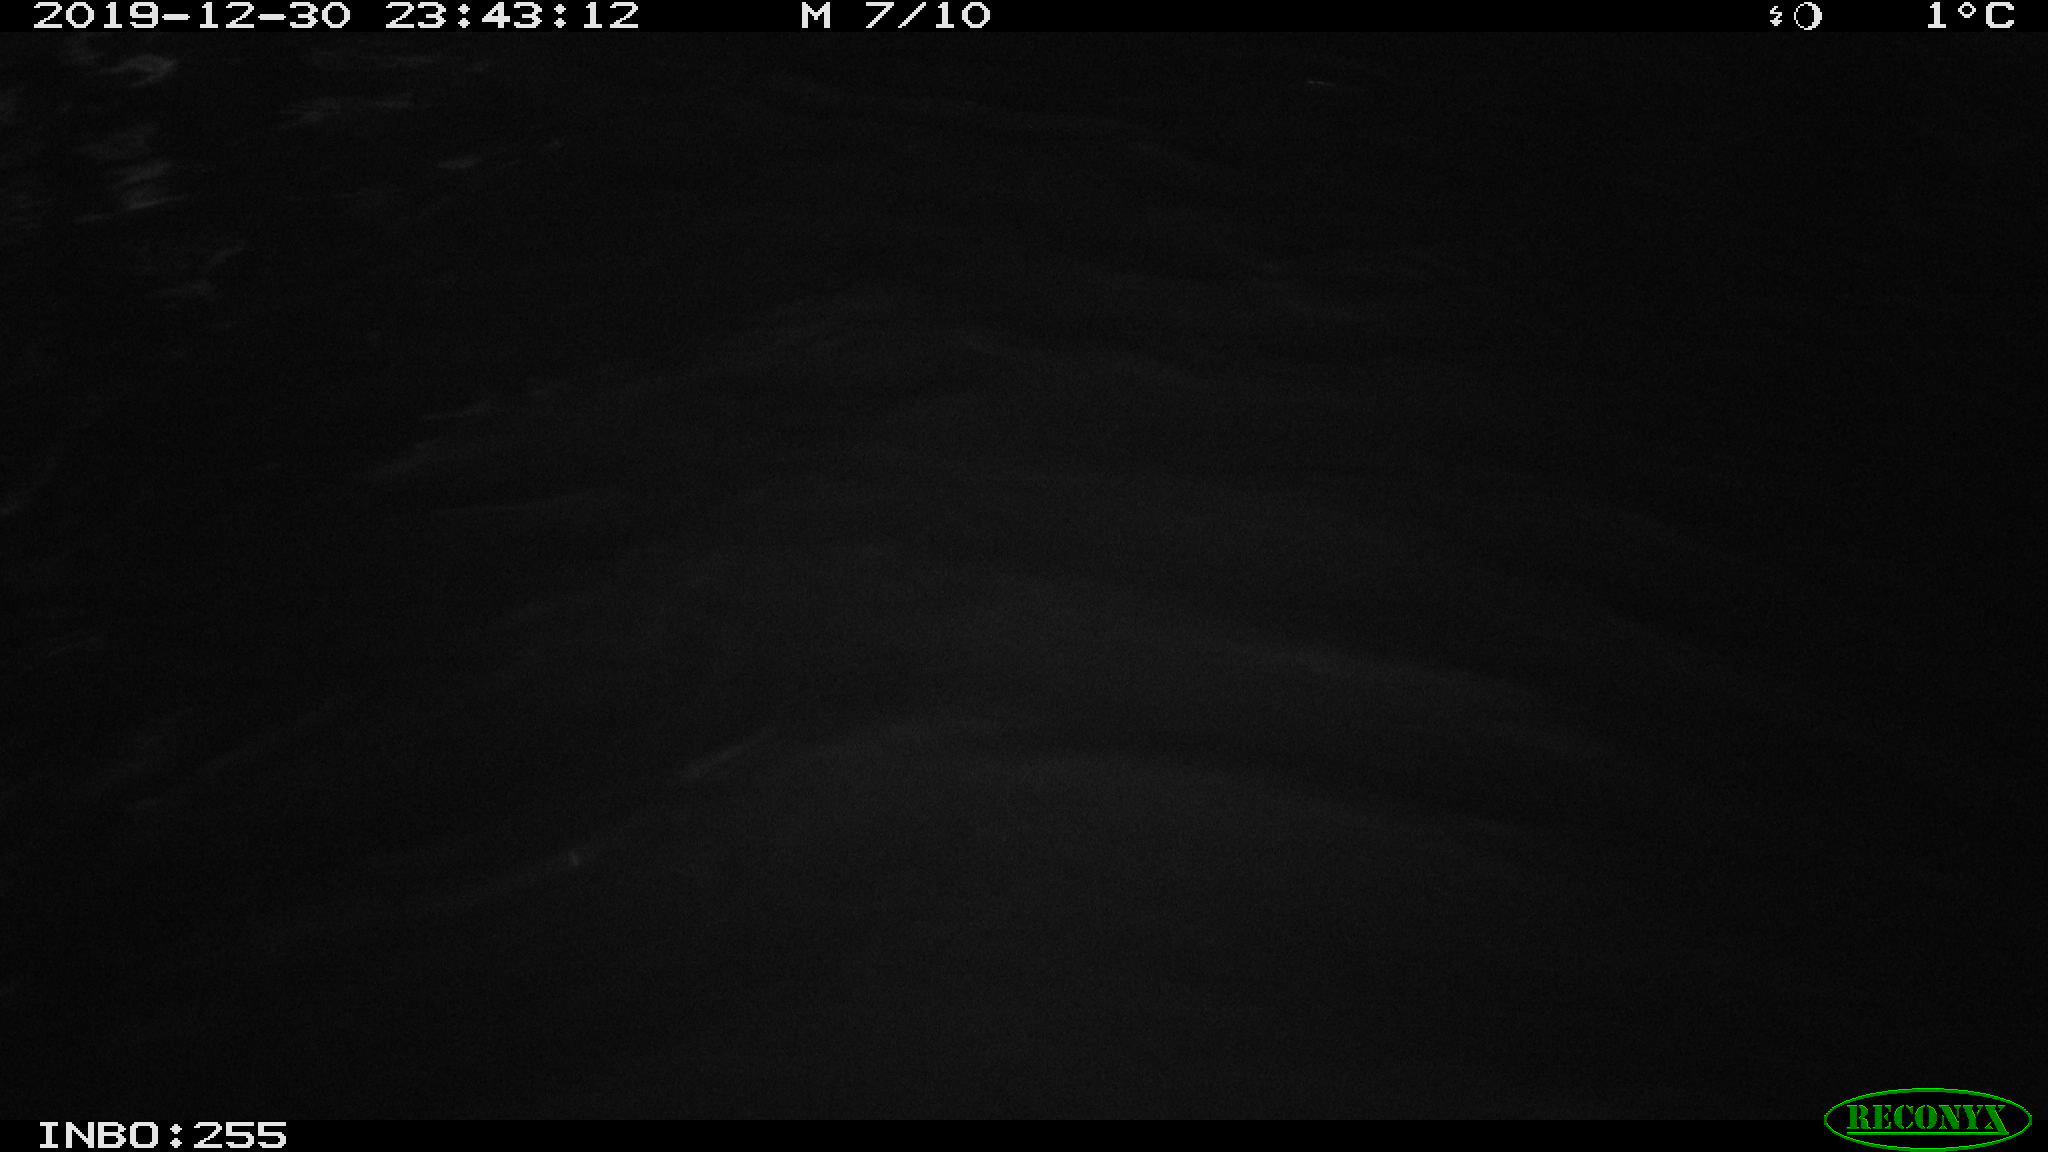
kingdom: Animalia
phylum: Chordata
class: Mammalia
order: Rodentia
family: Cricetidae
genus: Ondatra
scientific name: Ondatra zibethicus
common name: Muskrat
